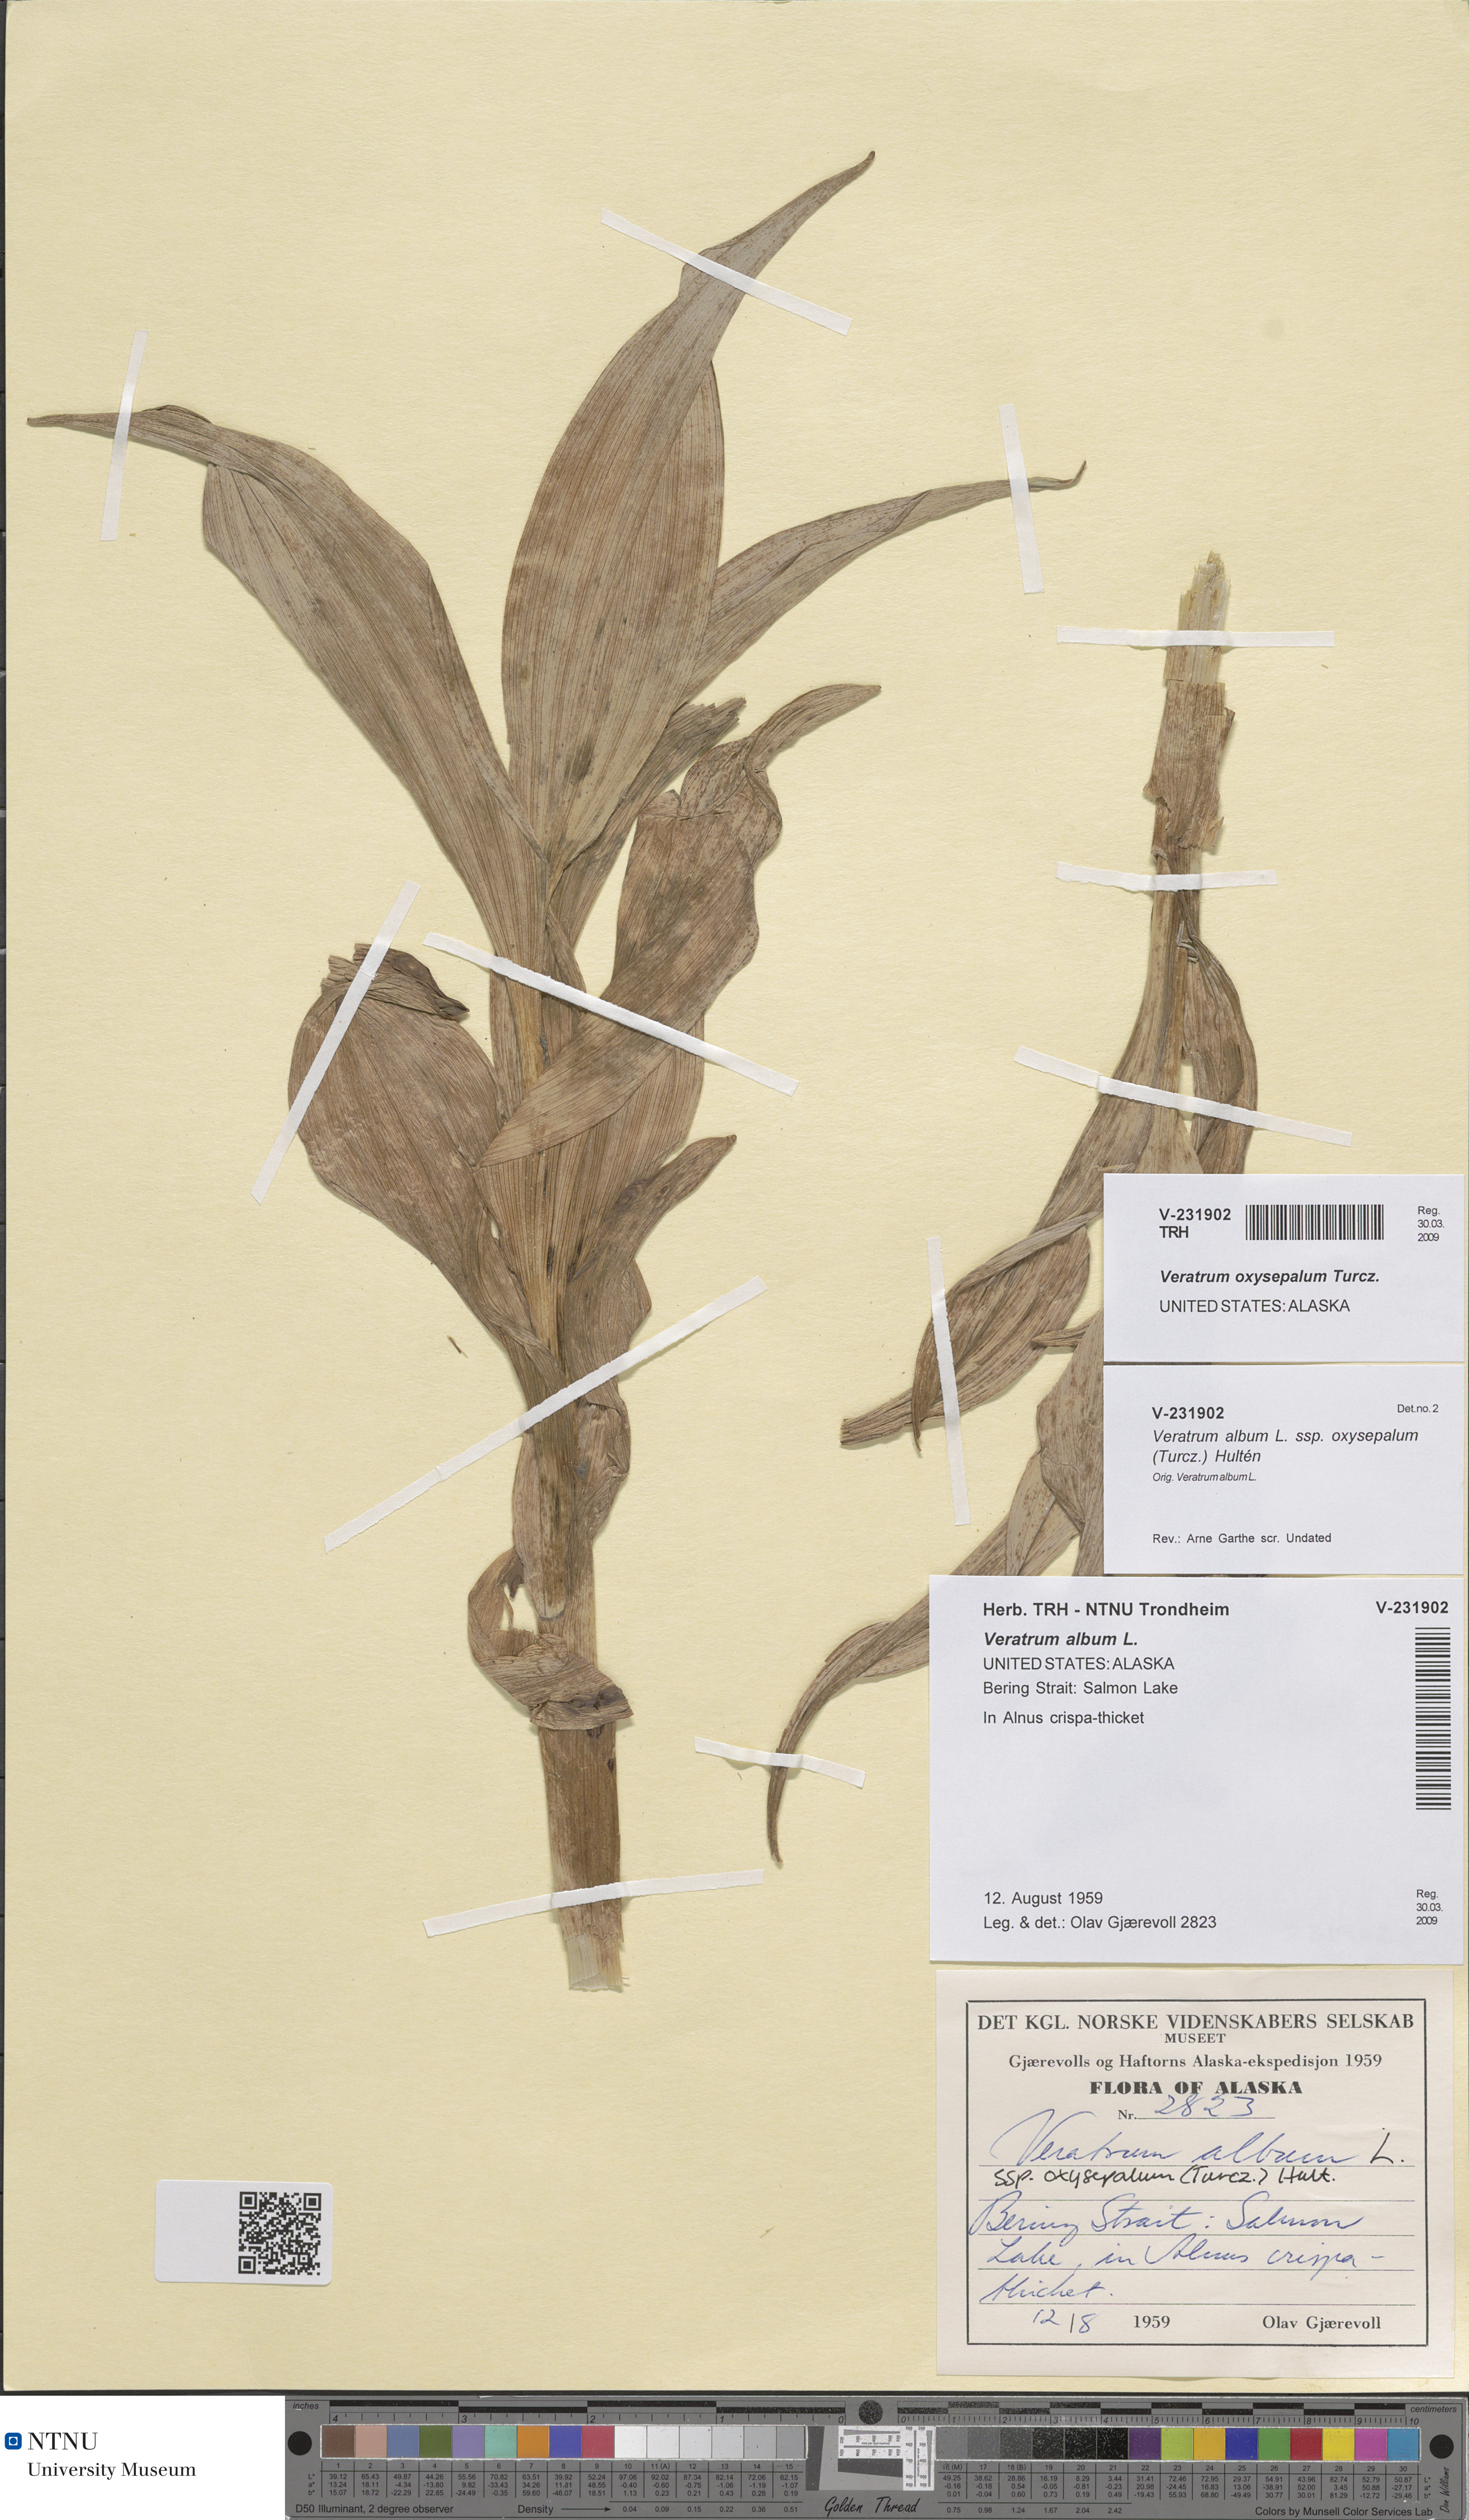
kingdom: Plantae
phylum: Tracheophyta
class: Liliopsida
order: Liliales
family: Melanthiaceae
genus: Veratrum
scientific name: Veratrum oxysepalum
